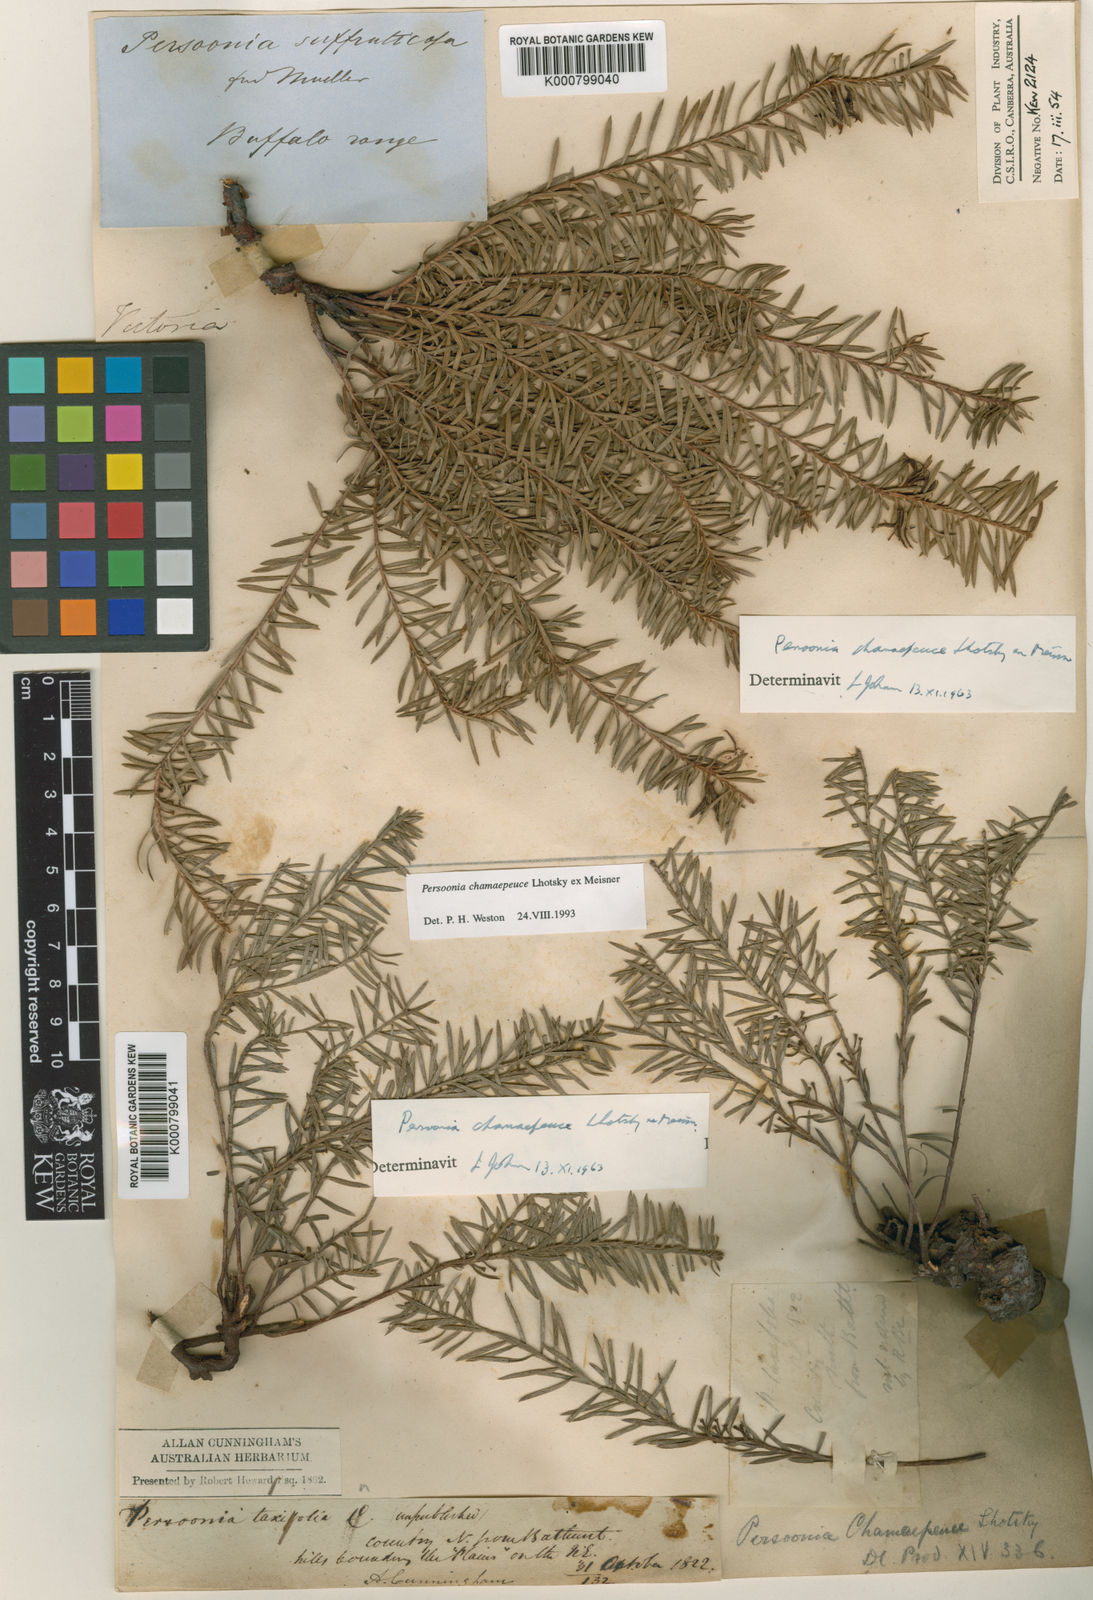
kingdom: Plantae
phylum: Tracheophyta
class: Magnoliopsida
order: Proteales
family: Proteaceae
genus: Persoonia
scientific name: Persoonia chamaepeuce
